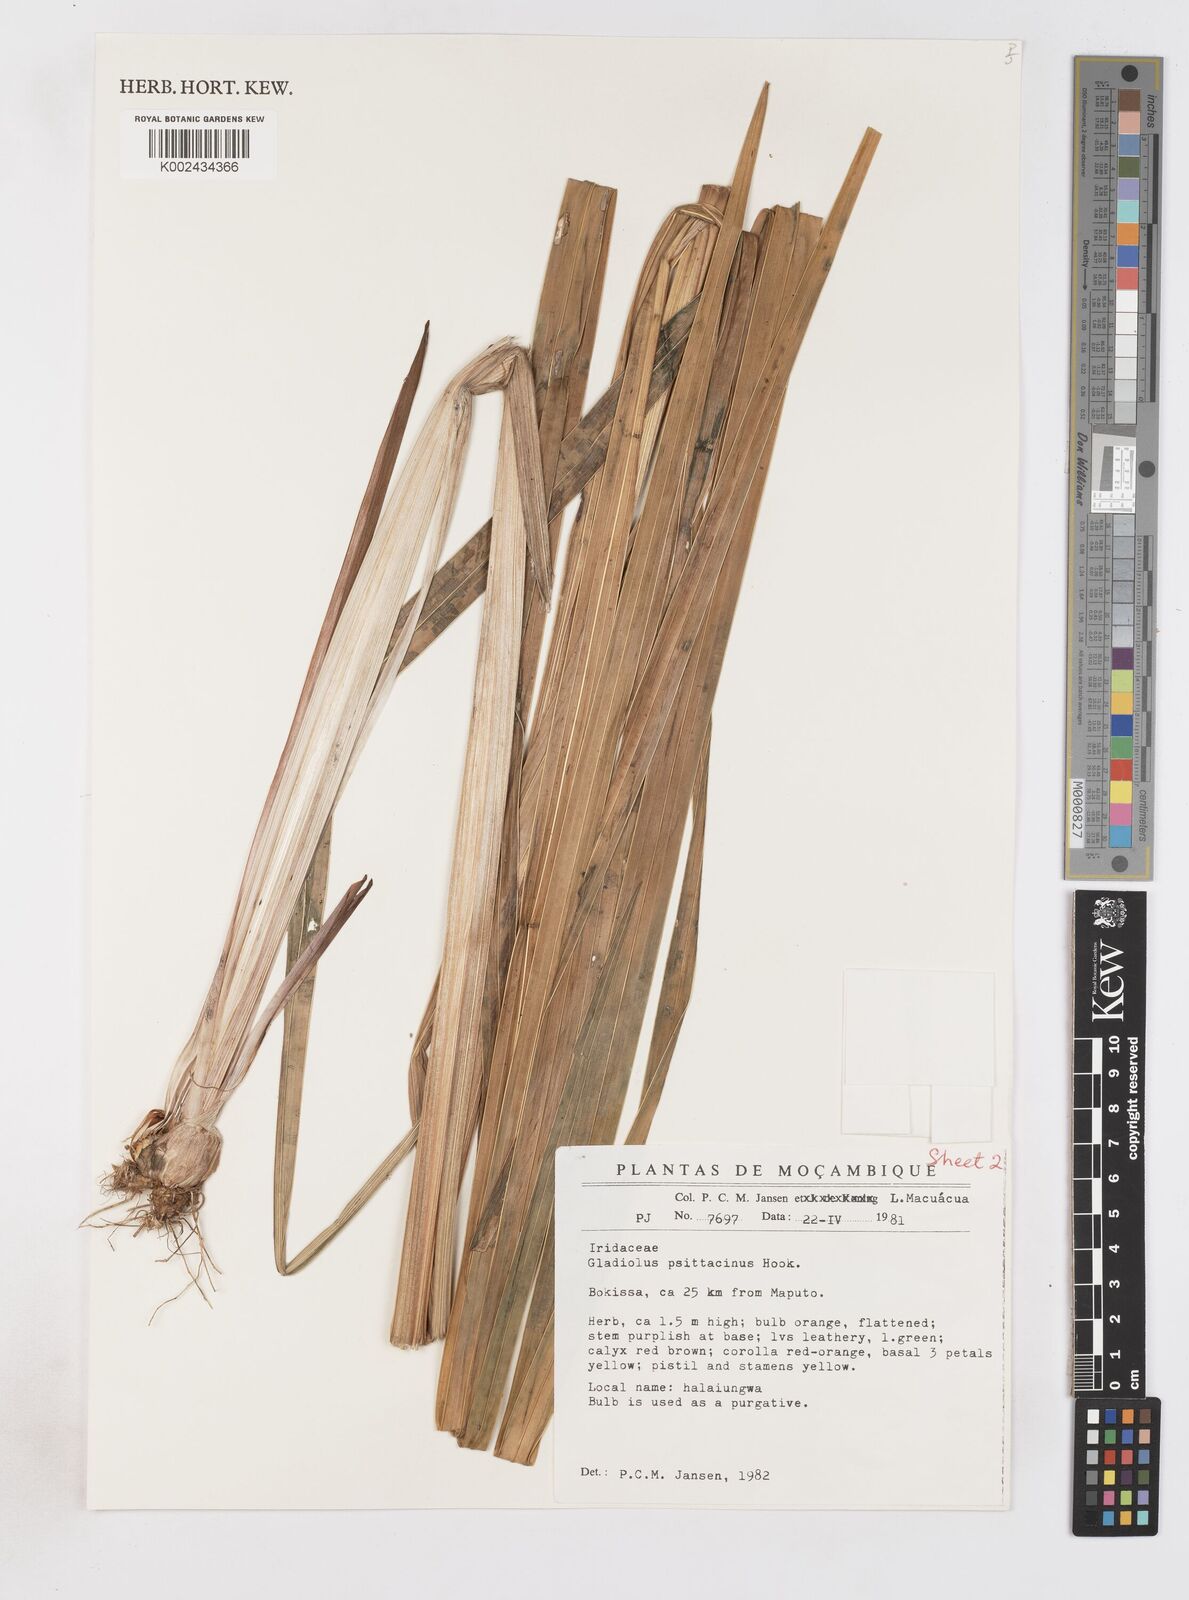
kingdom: Plantae
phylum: Tracheophyta
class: Liliopsida
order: Asparagales
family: Iridaceae
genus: Gladiolus
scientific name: Gladiolus dalenii
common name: Cornflag
